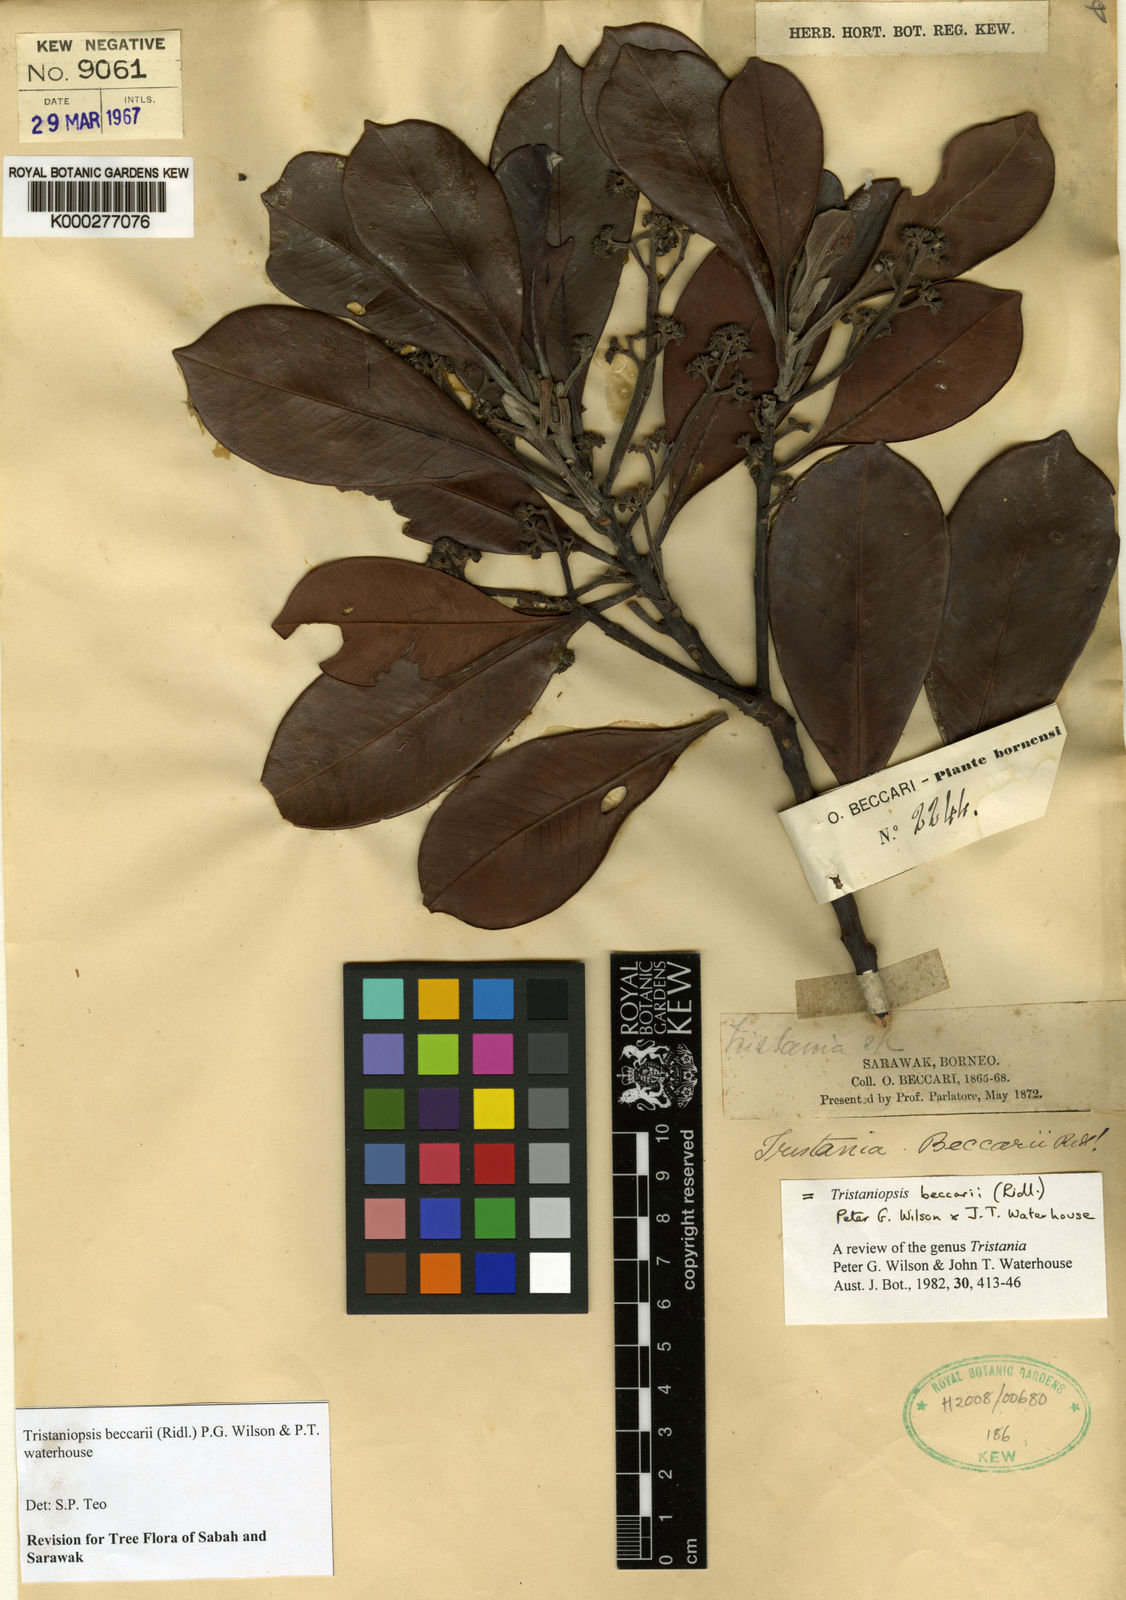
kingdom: Plantae
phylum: Tracheophyta
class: Magnoliopsida
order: Myrtales
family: Myrtaceae
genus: Tristaniopsis
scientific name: Tristaniopsis beccarii
